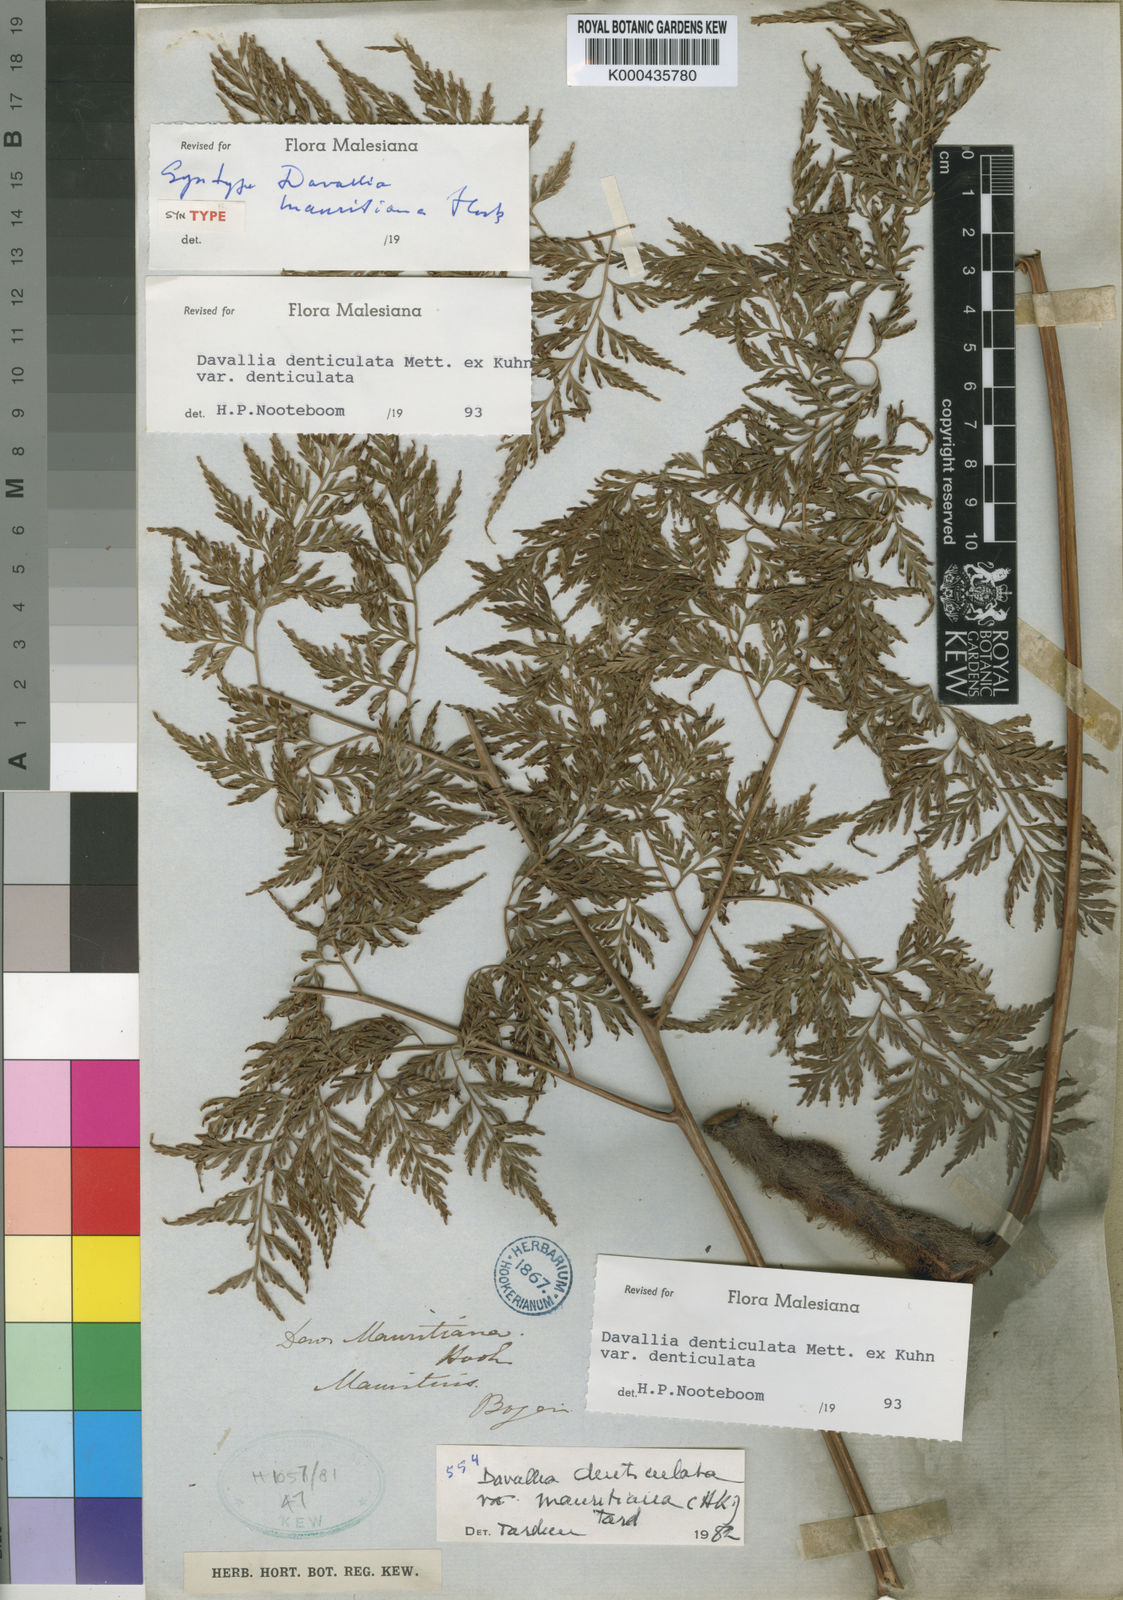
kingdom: Plantae
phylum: Tracheophyta
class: Polypodiopsida
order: Polypodiales
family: Davalliaceae
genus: Davallia
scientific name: Davallia
